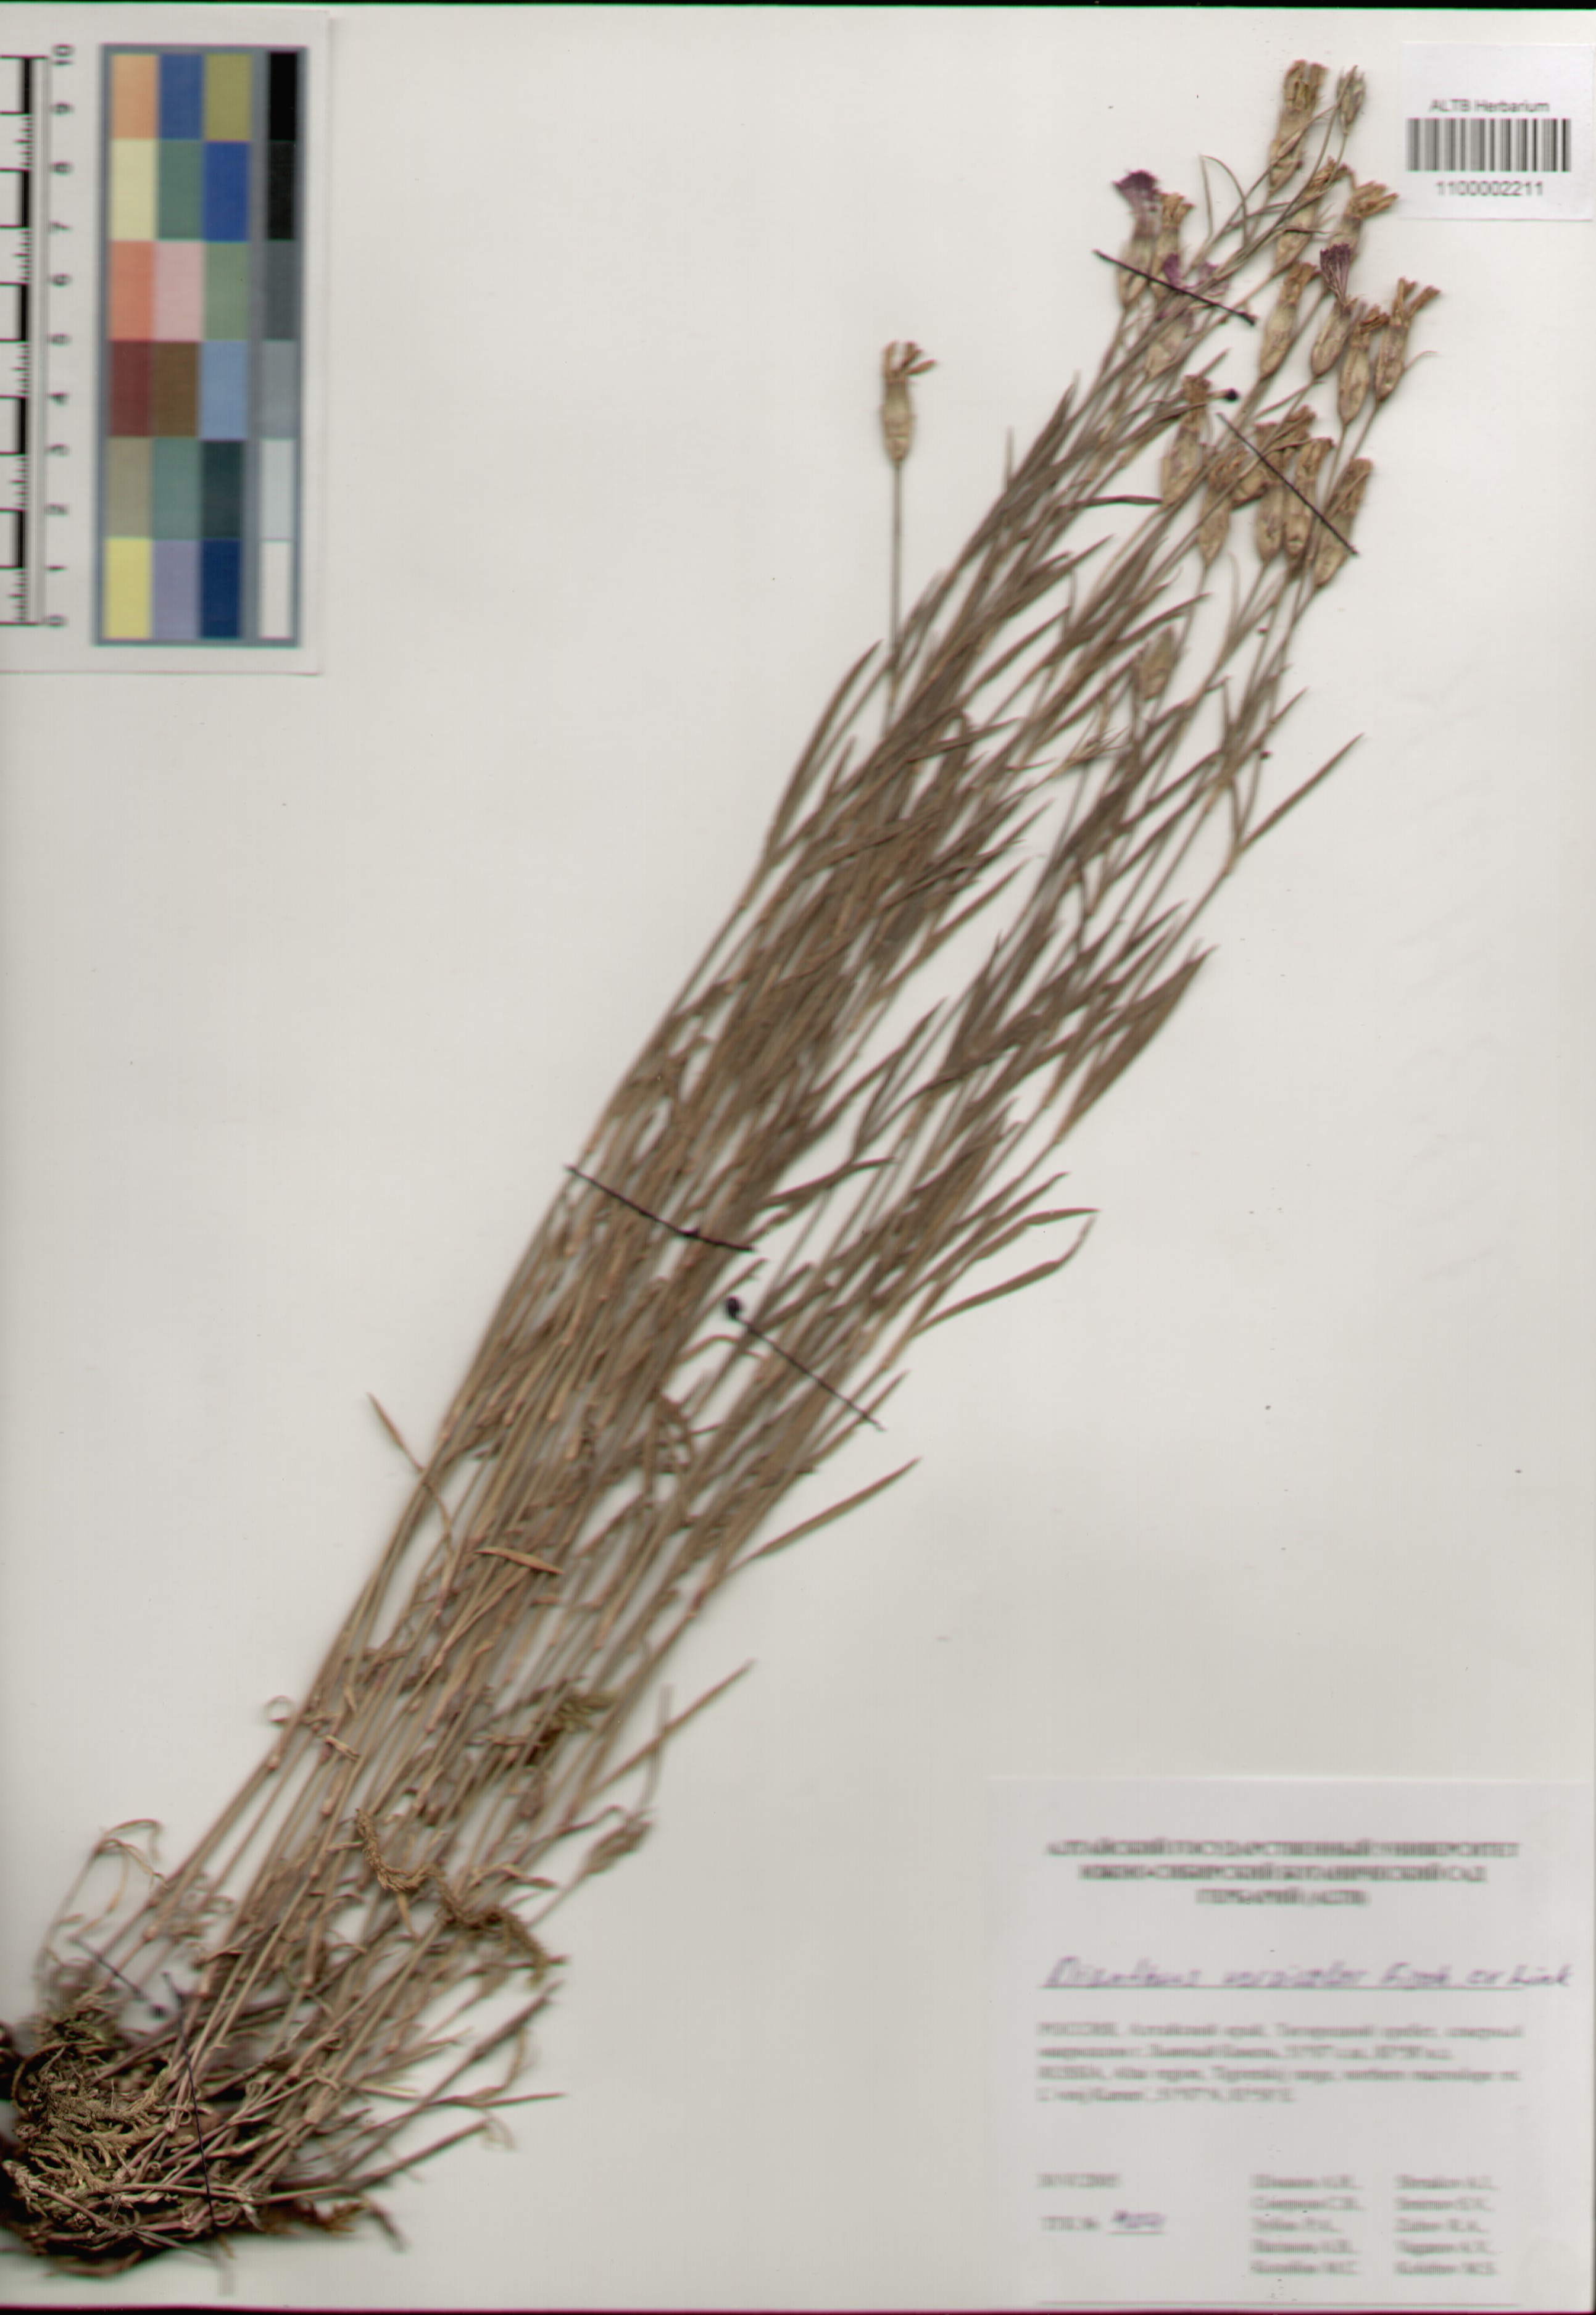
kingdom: Plantae
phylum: Tracheophyta
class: Magnoliopsida
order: Caryophyllales
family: Caryophyllaceae
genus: Dianthus
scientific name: Dianthus chinensis
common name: Rainbow pink
